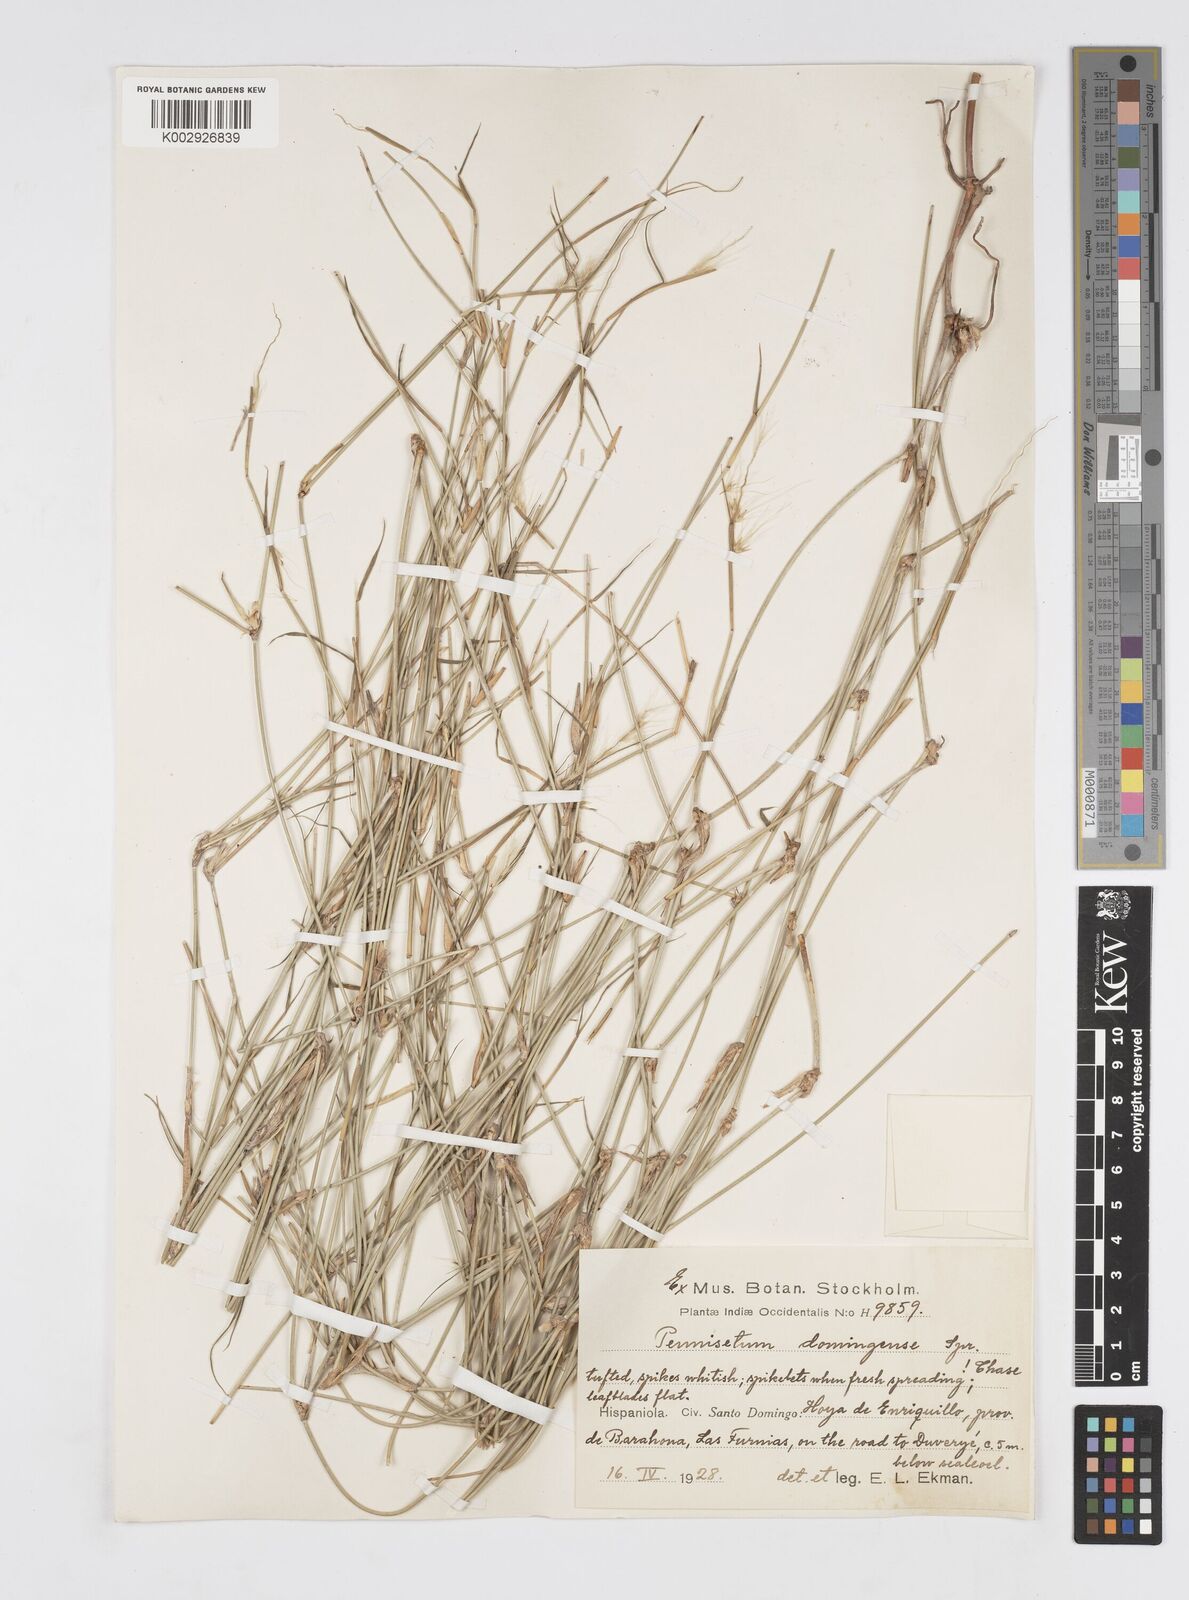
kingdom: Plantae
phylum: Tracheophyta
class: Liliopsida
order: Poales
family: Poaceae
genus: Cenchrus
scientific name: Cenchrus domingensis
